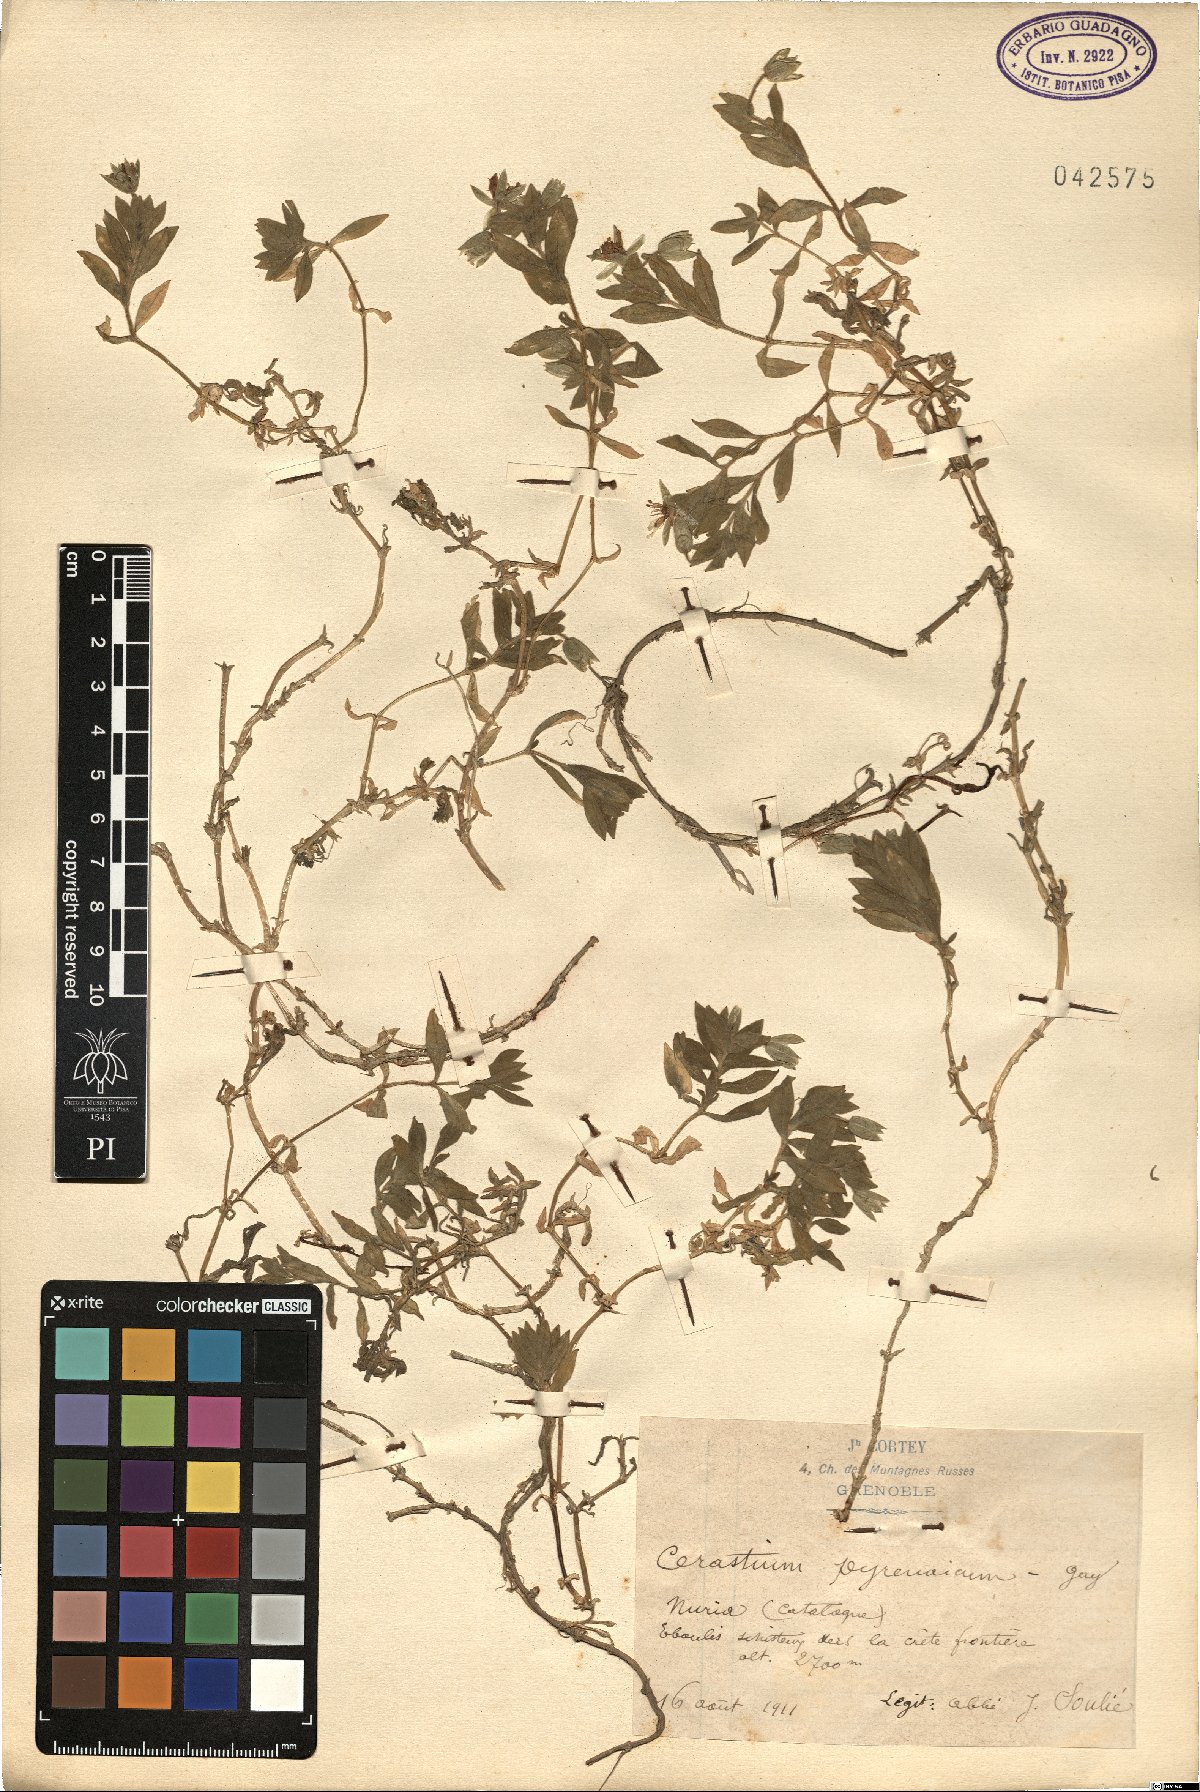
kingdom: Plantae
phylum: Tracheophyta
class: Magnoliopsida
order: Caryophyllales
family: Caryophyllaceae
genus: Cerastium
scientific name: Cerastium pyrenaicum
